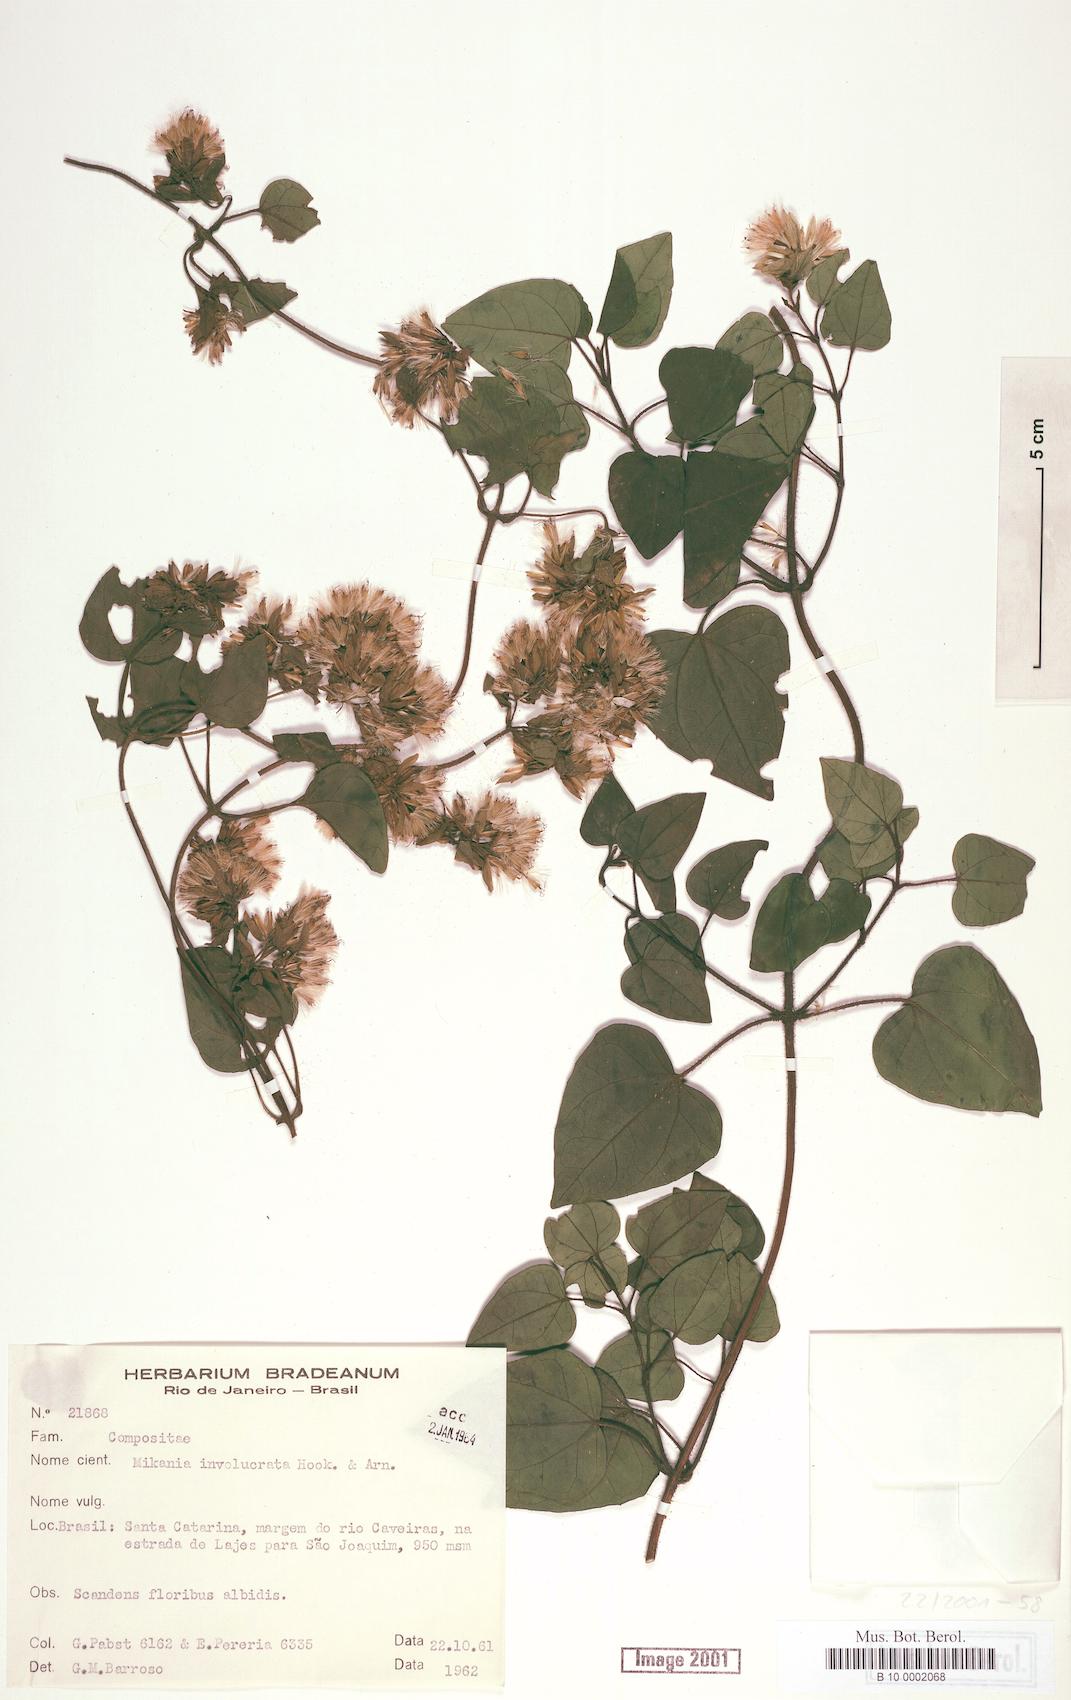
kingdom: Plantae
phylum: Tracheophyta
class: Magnoliopsida
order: Asterales
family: Asteraceae
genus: Mikania
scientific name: Mikania involucrata
